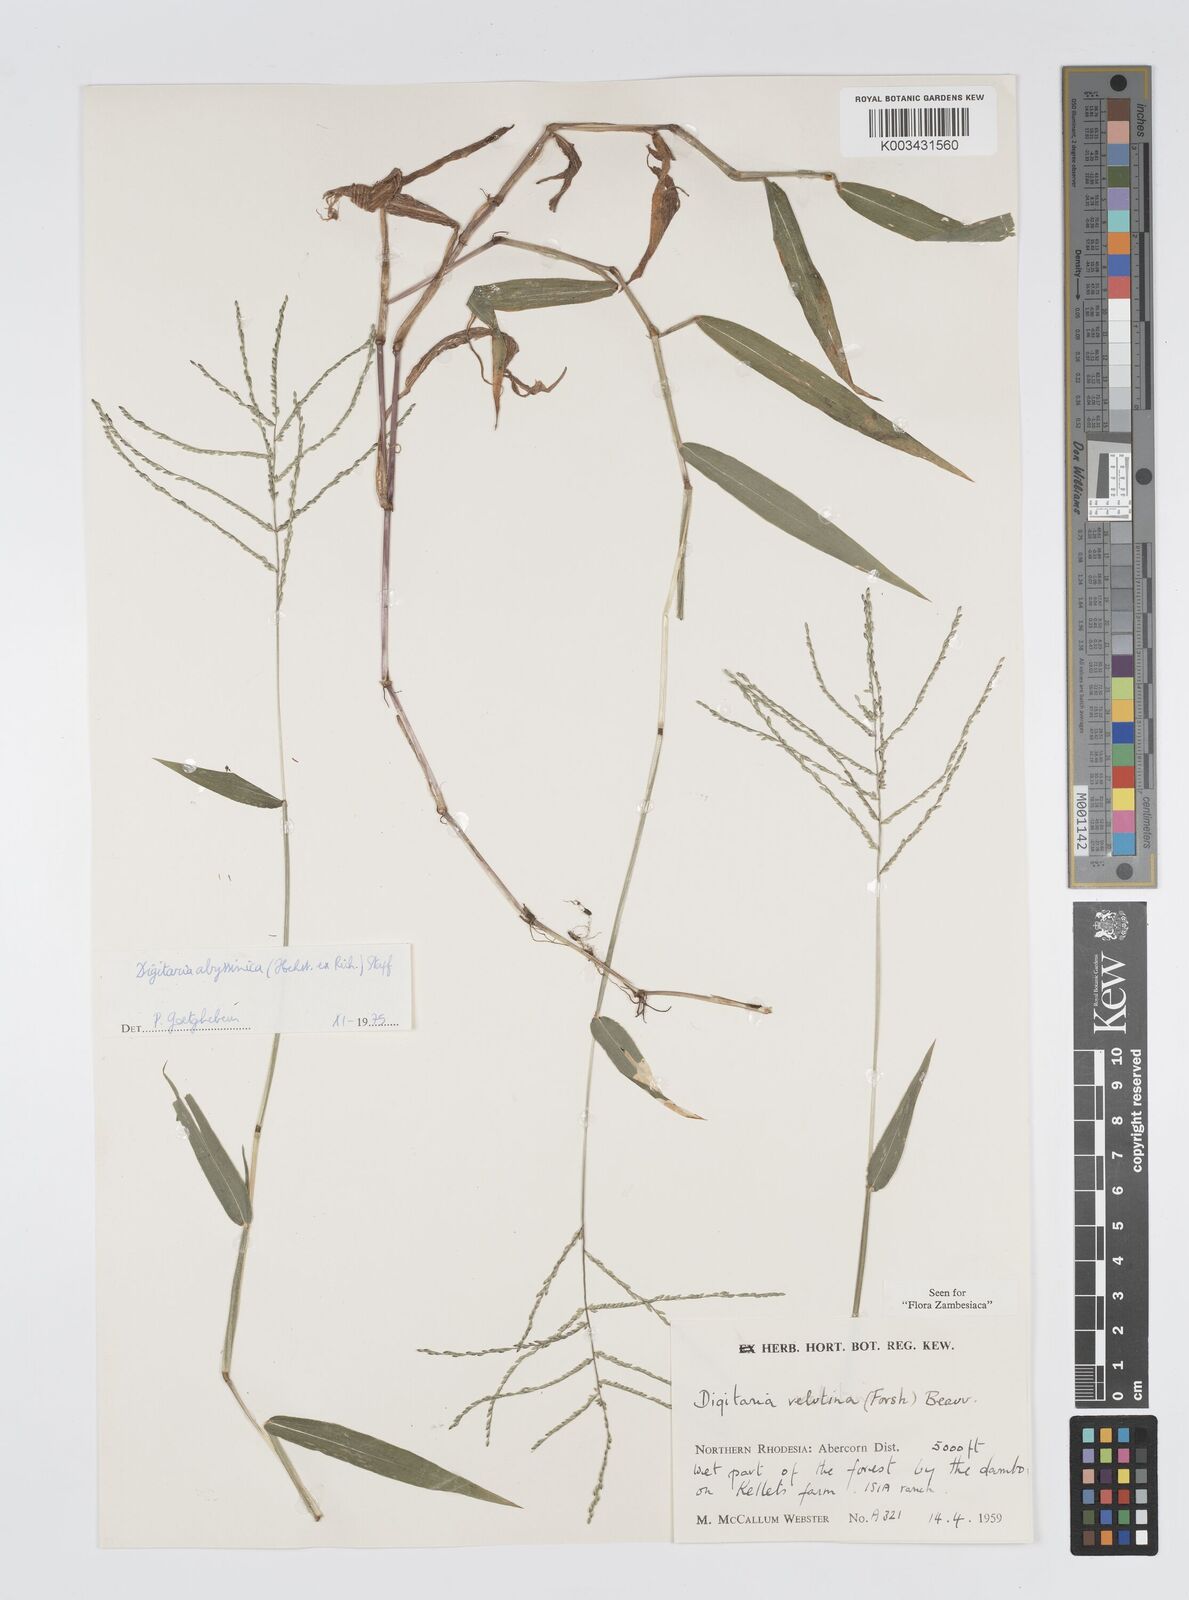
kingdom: Plantae
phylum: Tracheophyta
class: Liliopsida
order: Poales
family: Poaceae
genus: Digitaria
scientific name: Digitaria abyssinica
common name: African couchgrass
